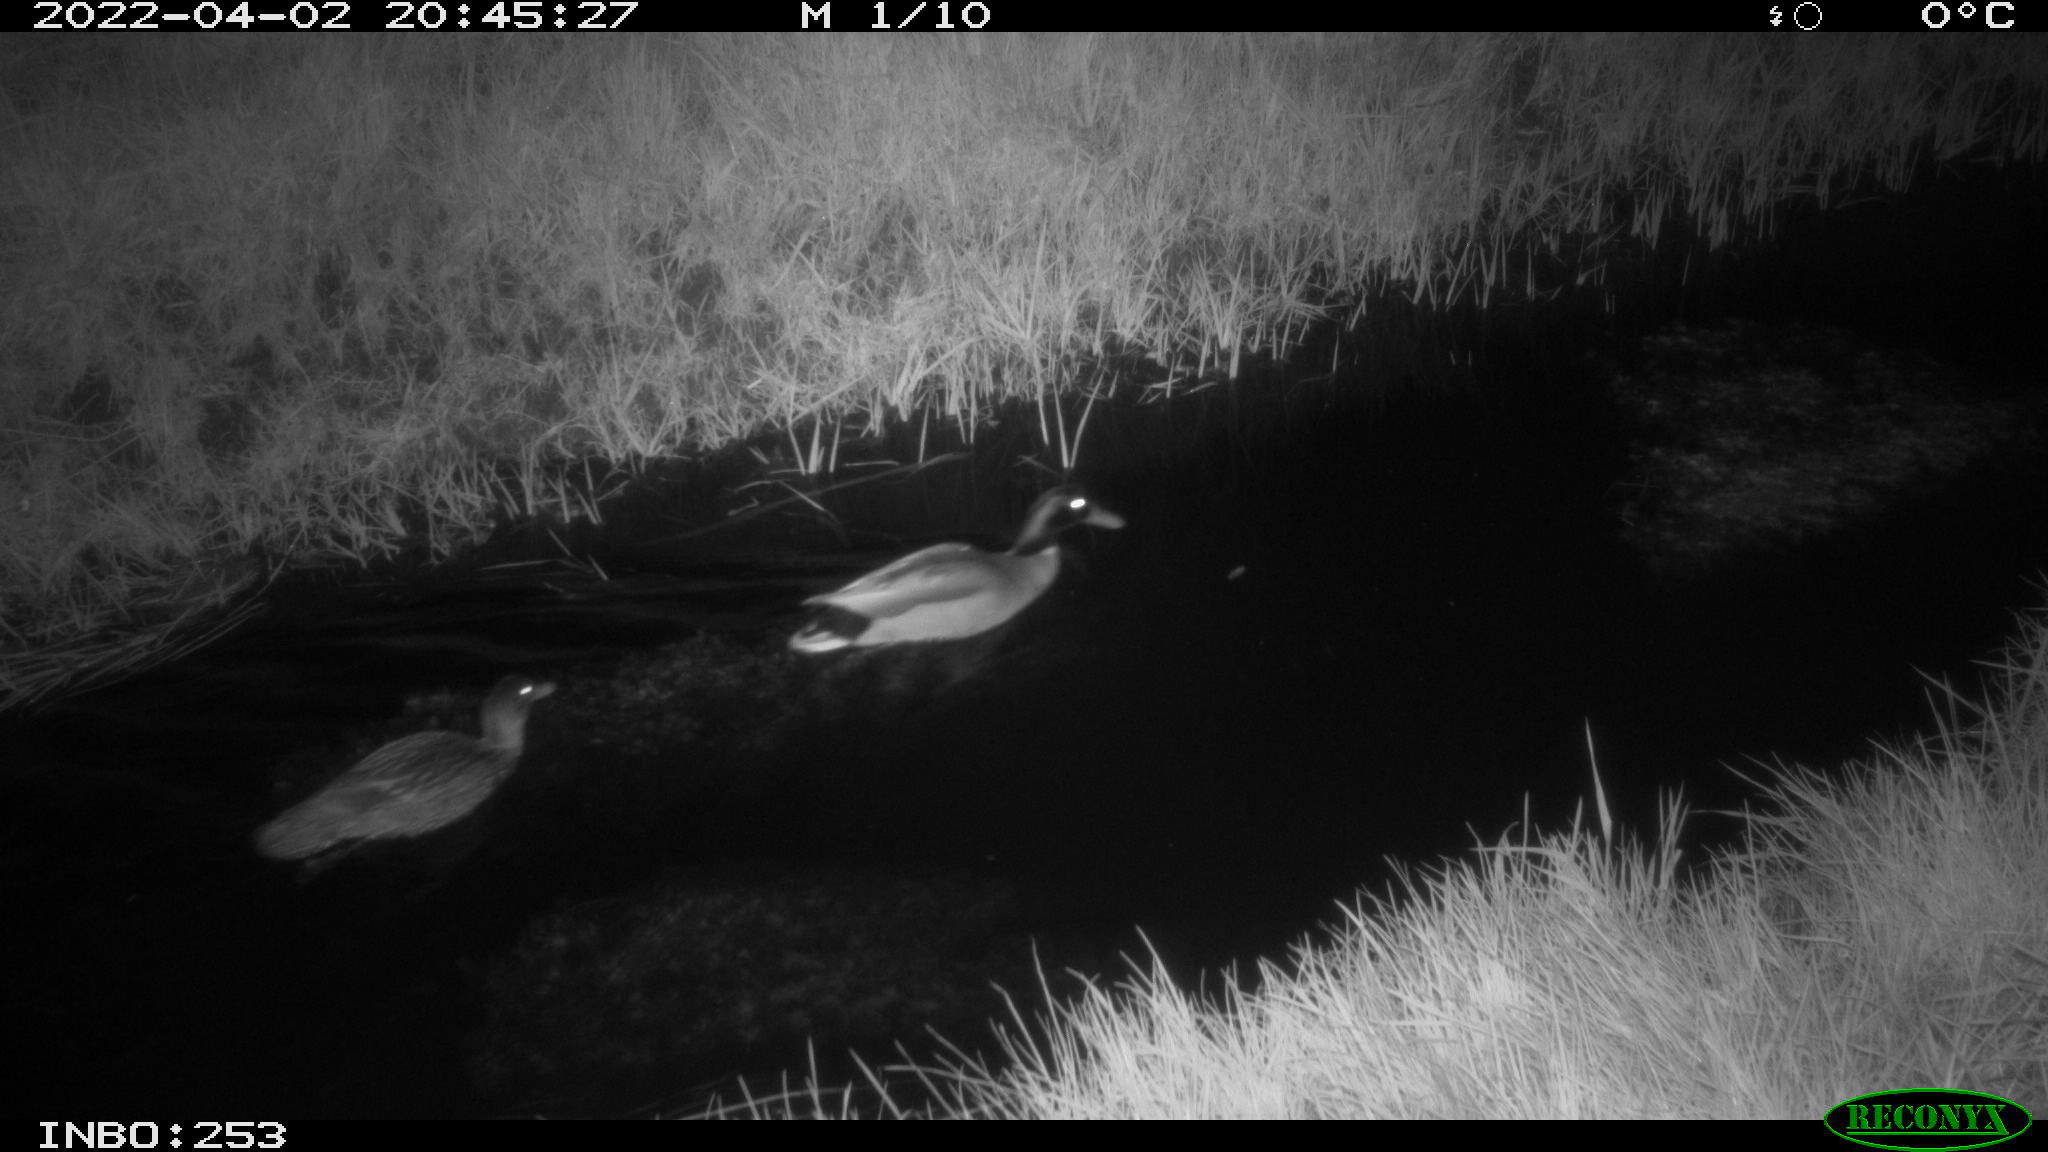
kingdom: Animalia
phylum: Chordata
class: Aves
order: Anseriformes
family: Anatidae
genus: Anas
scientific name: Anas platyrhynchos
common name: Mallard
